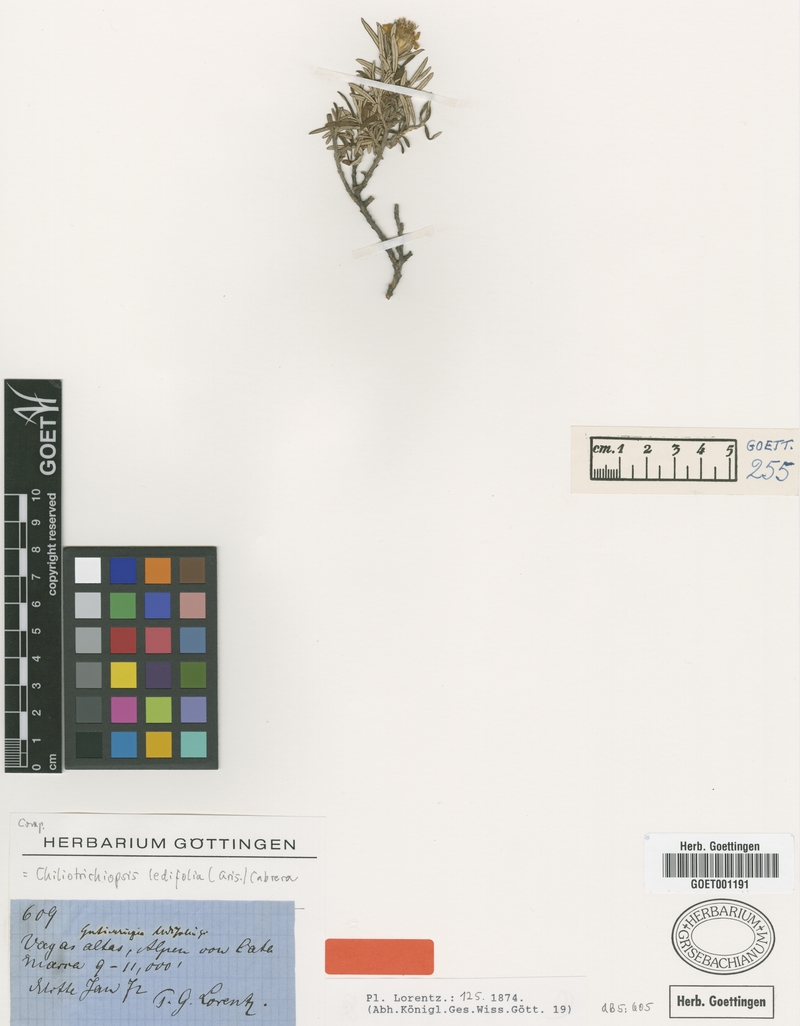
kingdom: Plantae
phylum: Tracheophyta
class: Magnoliopsida
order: Asterales
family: Asteraceae
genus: Chiliotrichiopsis
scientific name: Chiliotrichiopsis ledifolia
